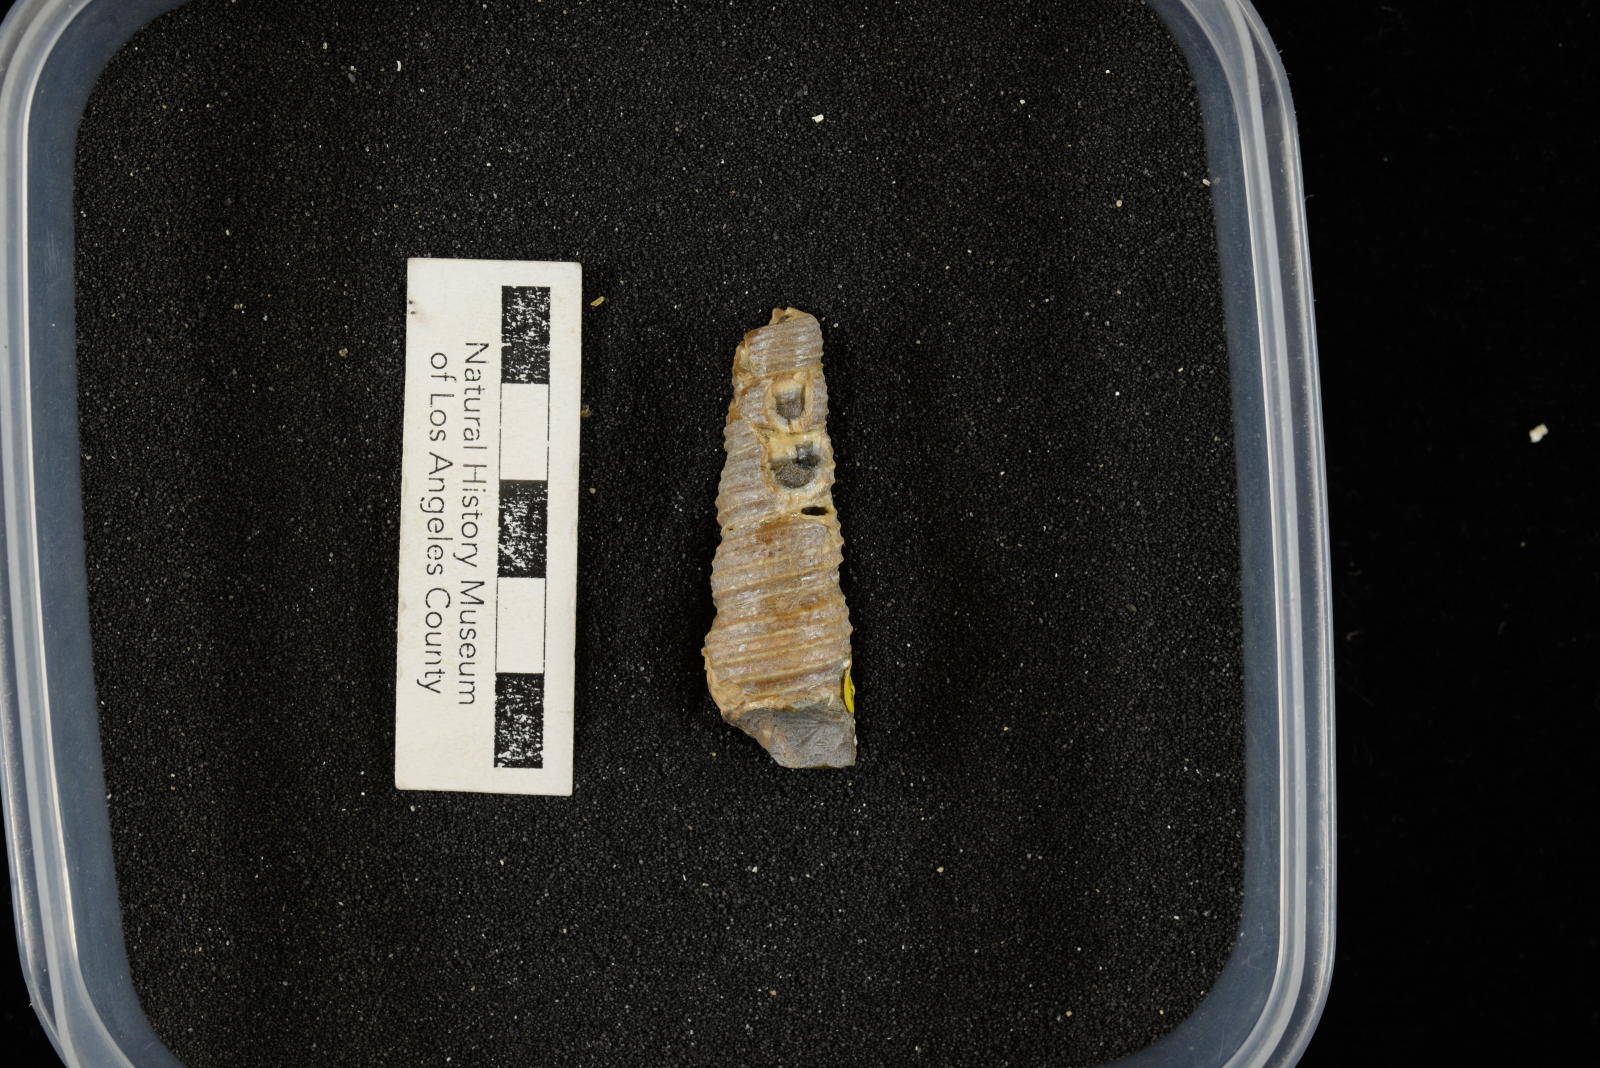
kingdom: Animalia
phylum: Mollusca
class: Gastropoda
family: Turritellidae
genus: Turritella
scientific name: Turritella chicoensis
